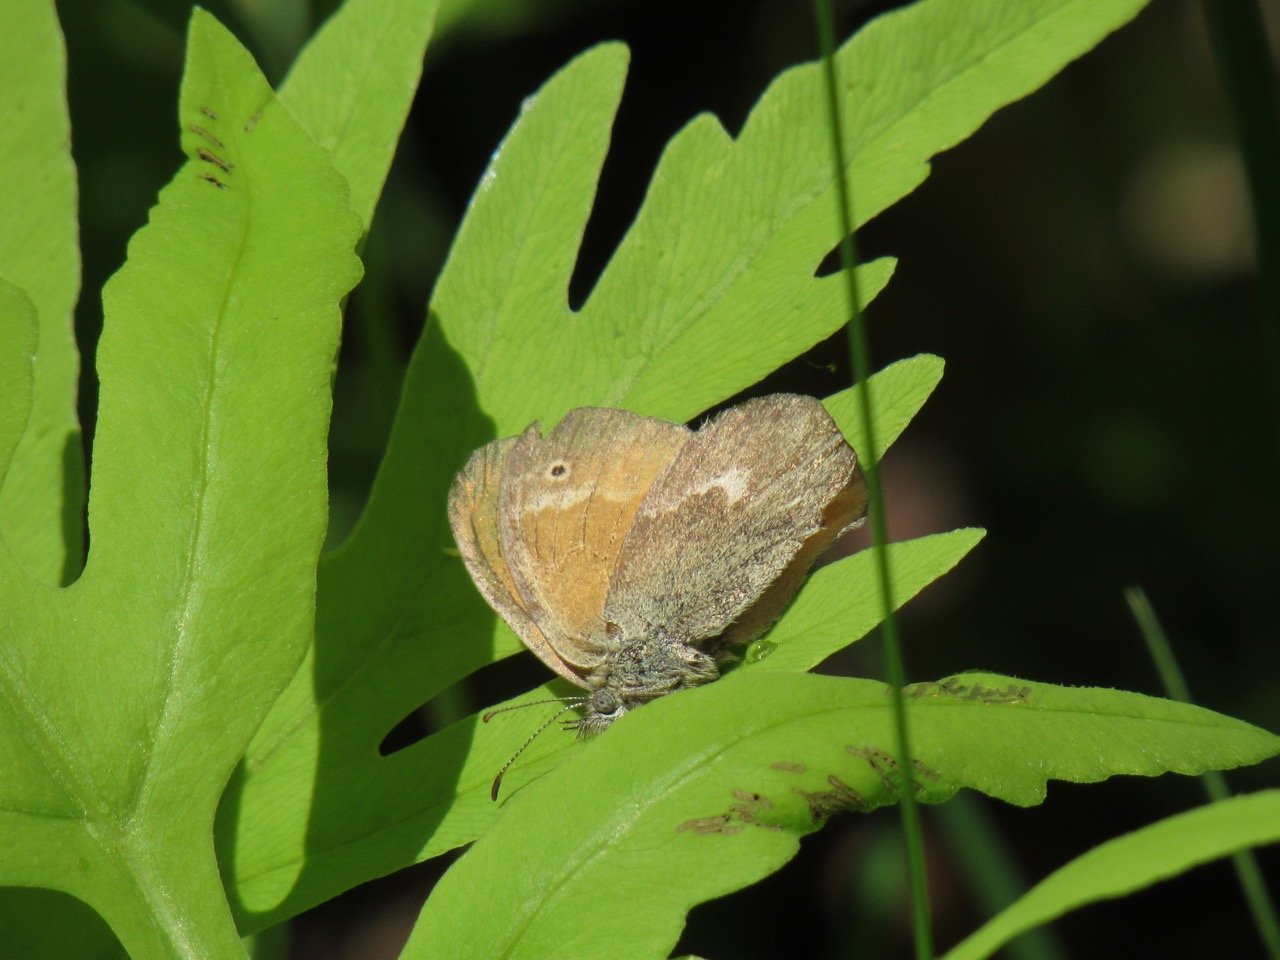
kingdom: Animalia
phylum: Arthropoda
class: Insecta
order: Lepidoptera
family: Nymphalidae
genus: Coenonympha
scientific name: Coenonympha tullia
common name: Large Heath
